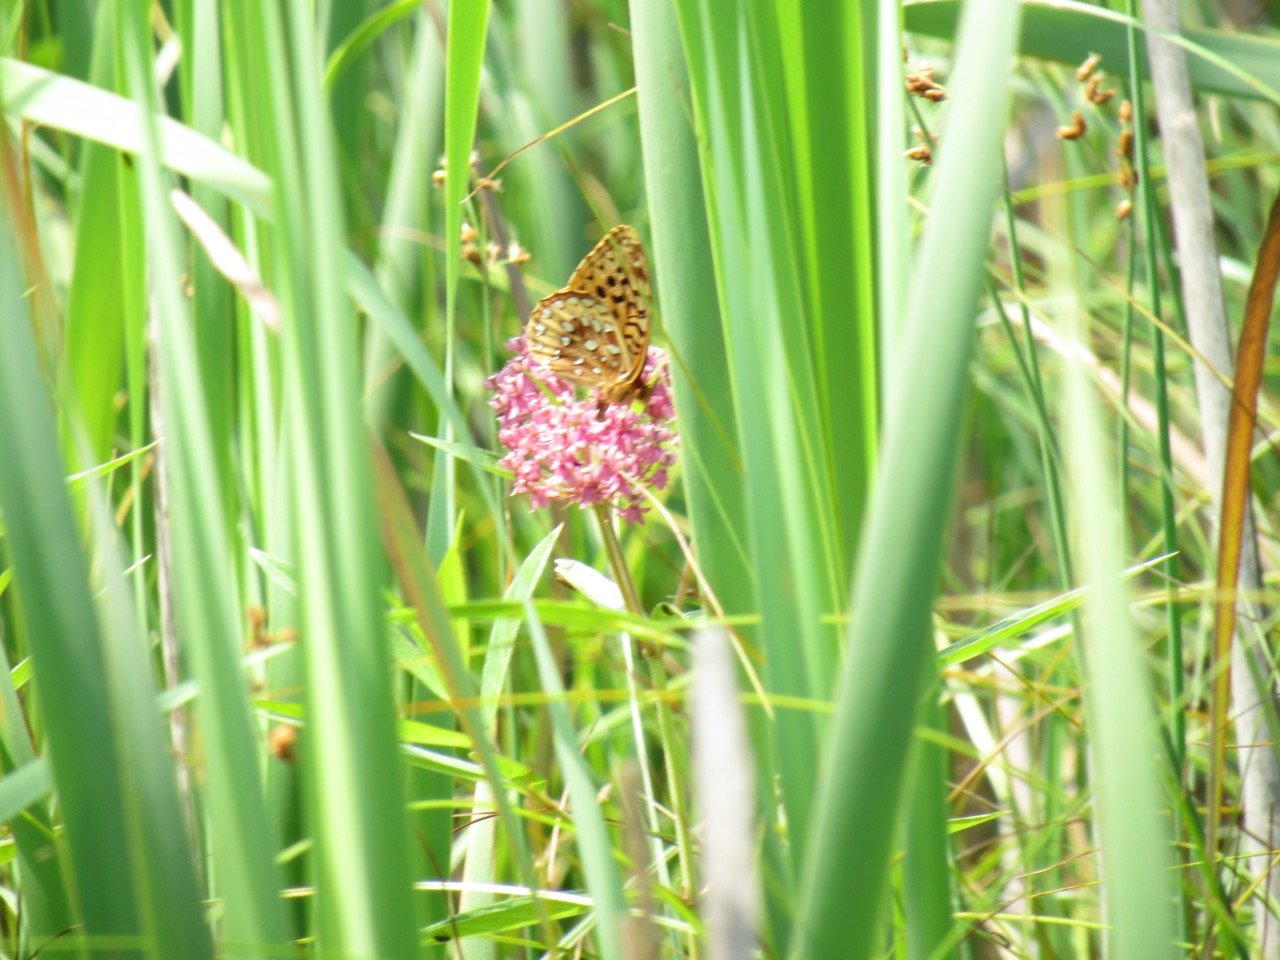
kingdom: Animalia
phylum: Arthropoda
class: Insecta
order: Lepidoptera
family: Nymphalidae
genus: Speyeria
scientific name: Speyeria cybele
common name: Great Spangled Fritillary
